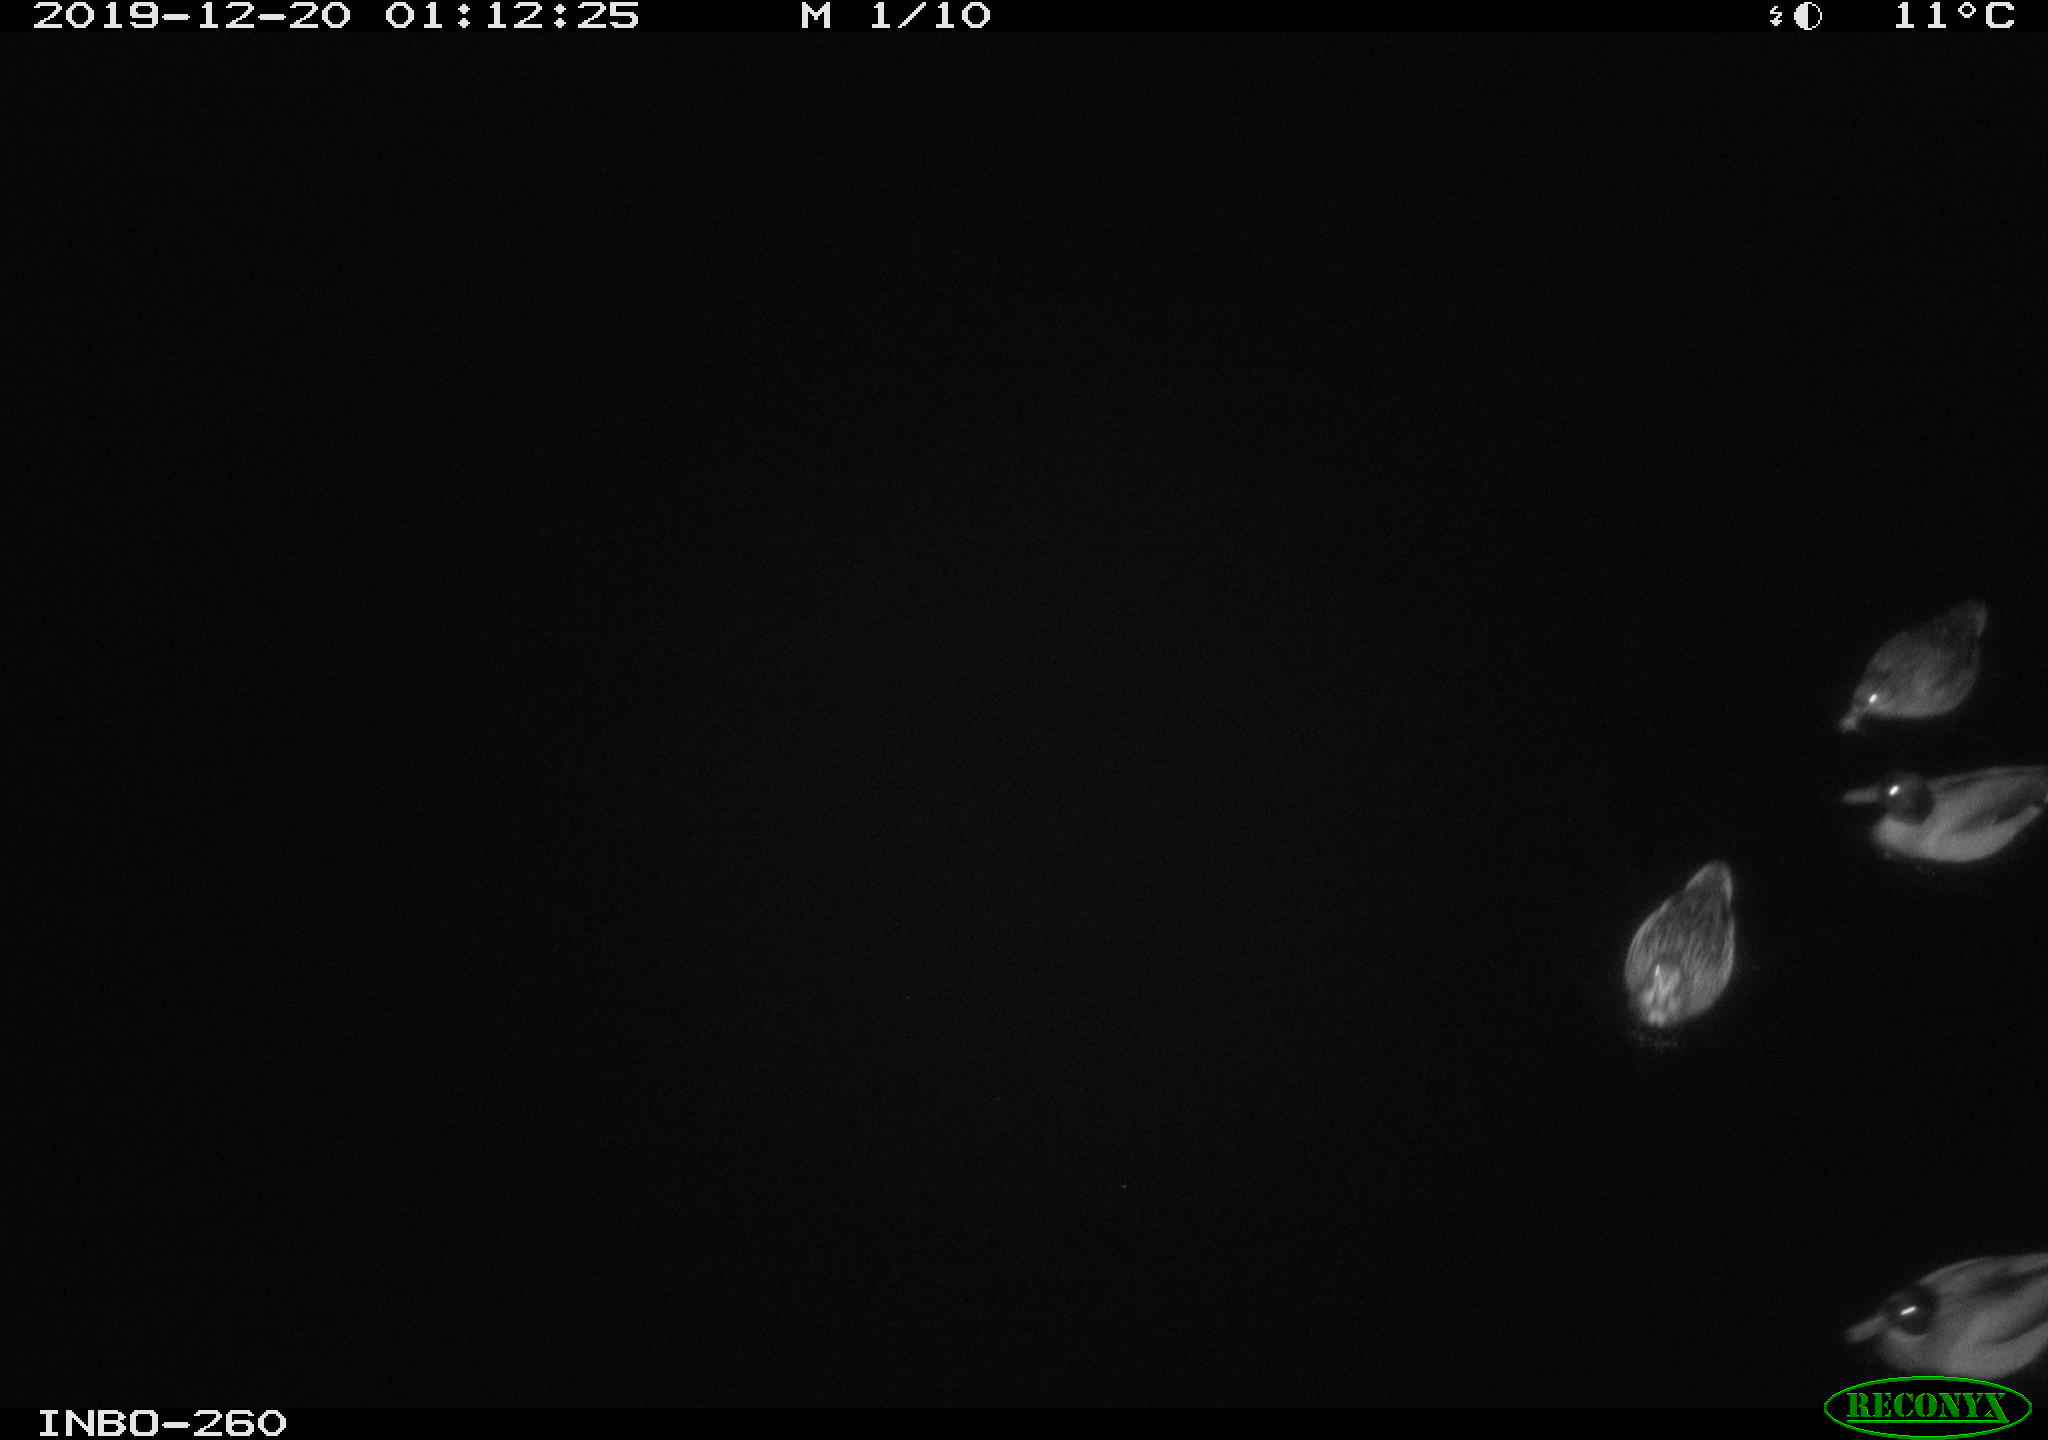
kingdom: Animalia
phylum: Chordata
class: Aves
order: Anseriformes
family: Anatidae
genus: Anas
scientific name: Anas platyrhynchos
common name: Mallard
